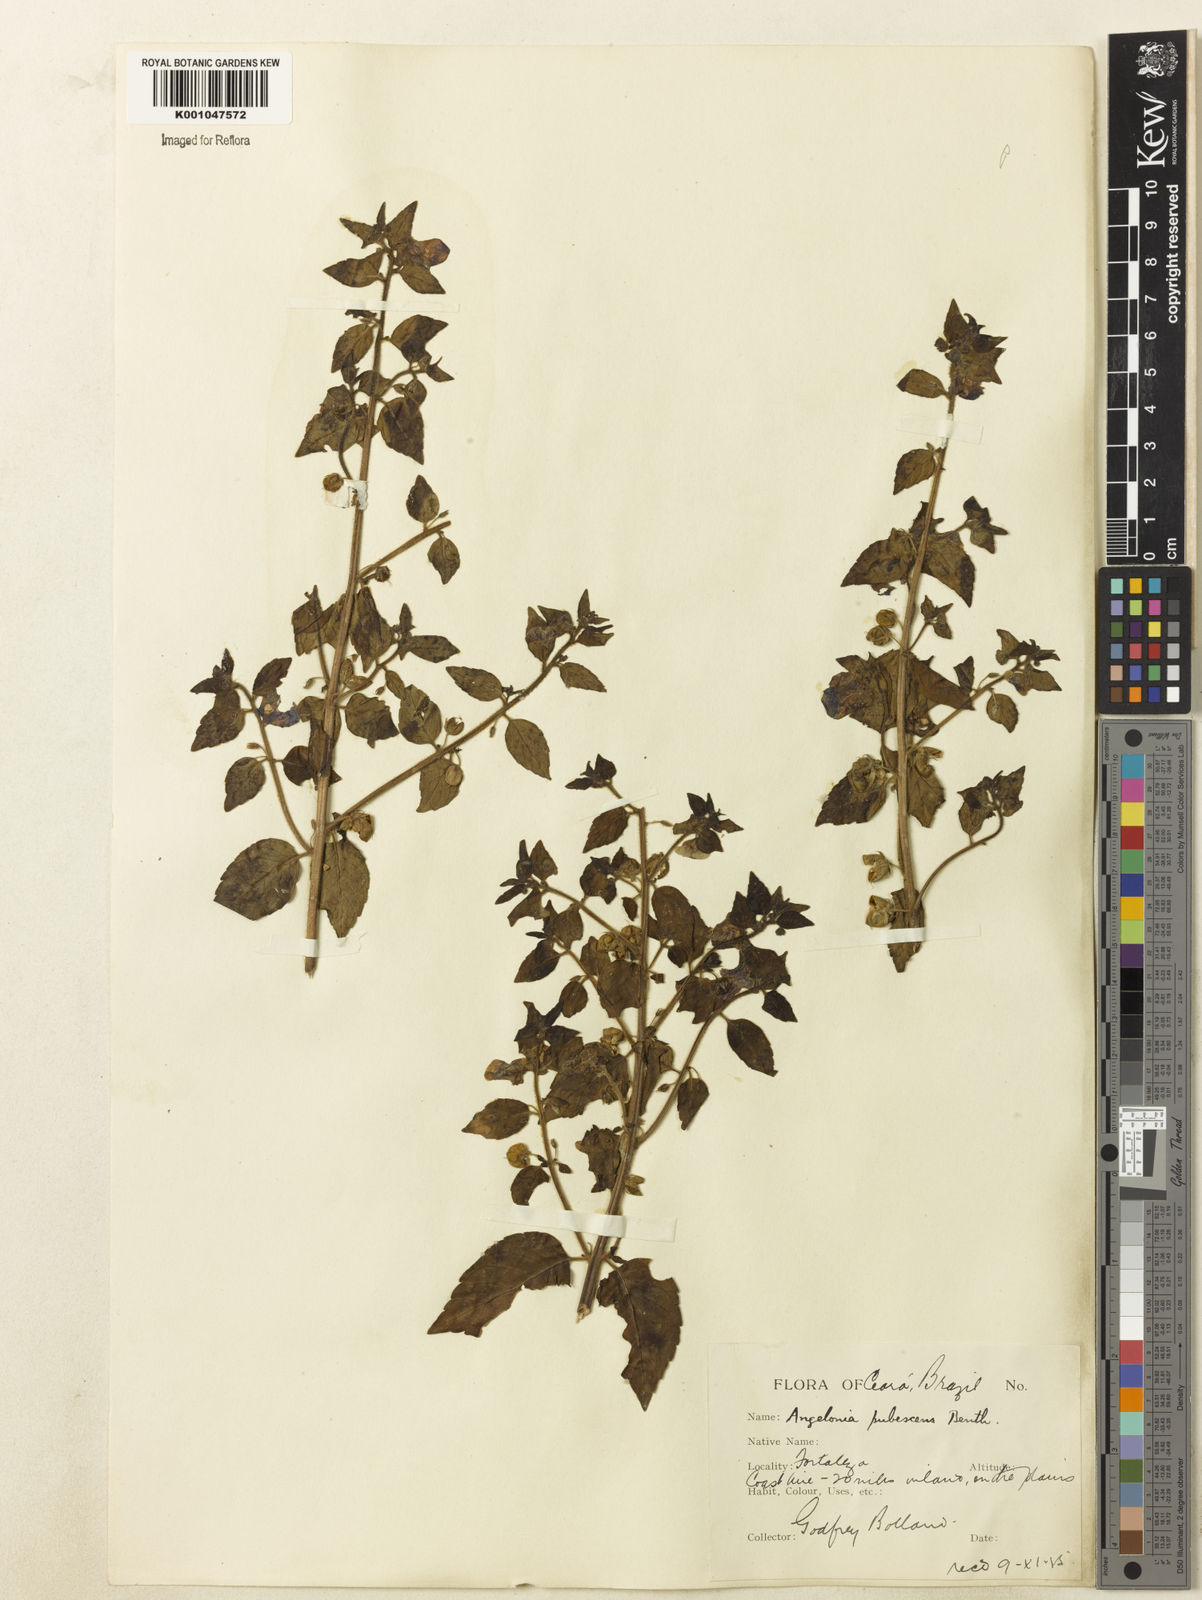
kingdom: Plantae
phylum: Tracheophyta
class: Magnoliopsida
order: Lamiales
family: Plantaginaceae
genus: Angelonia
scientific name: Angelonia pubescens
